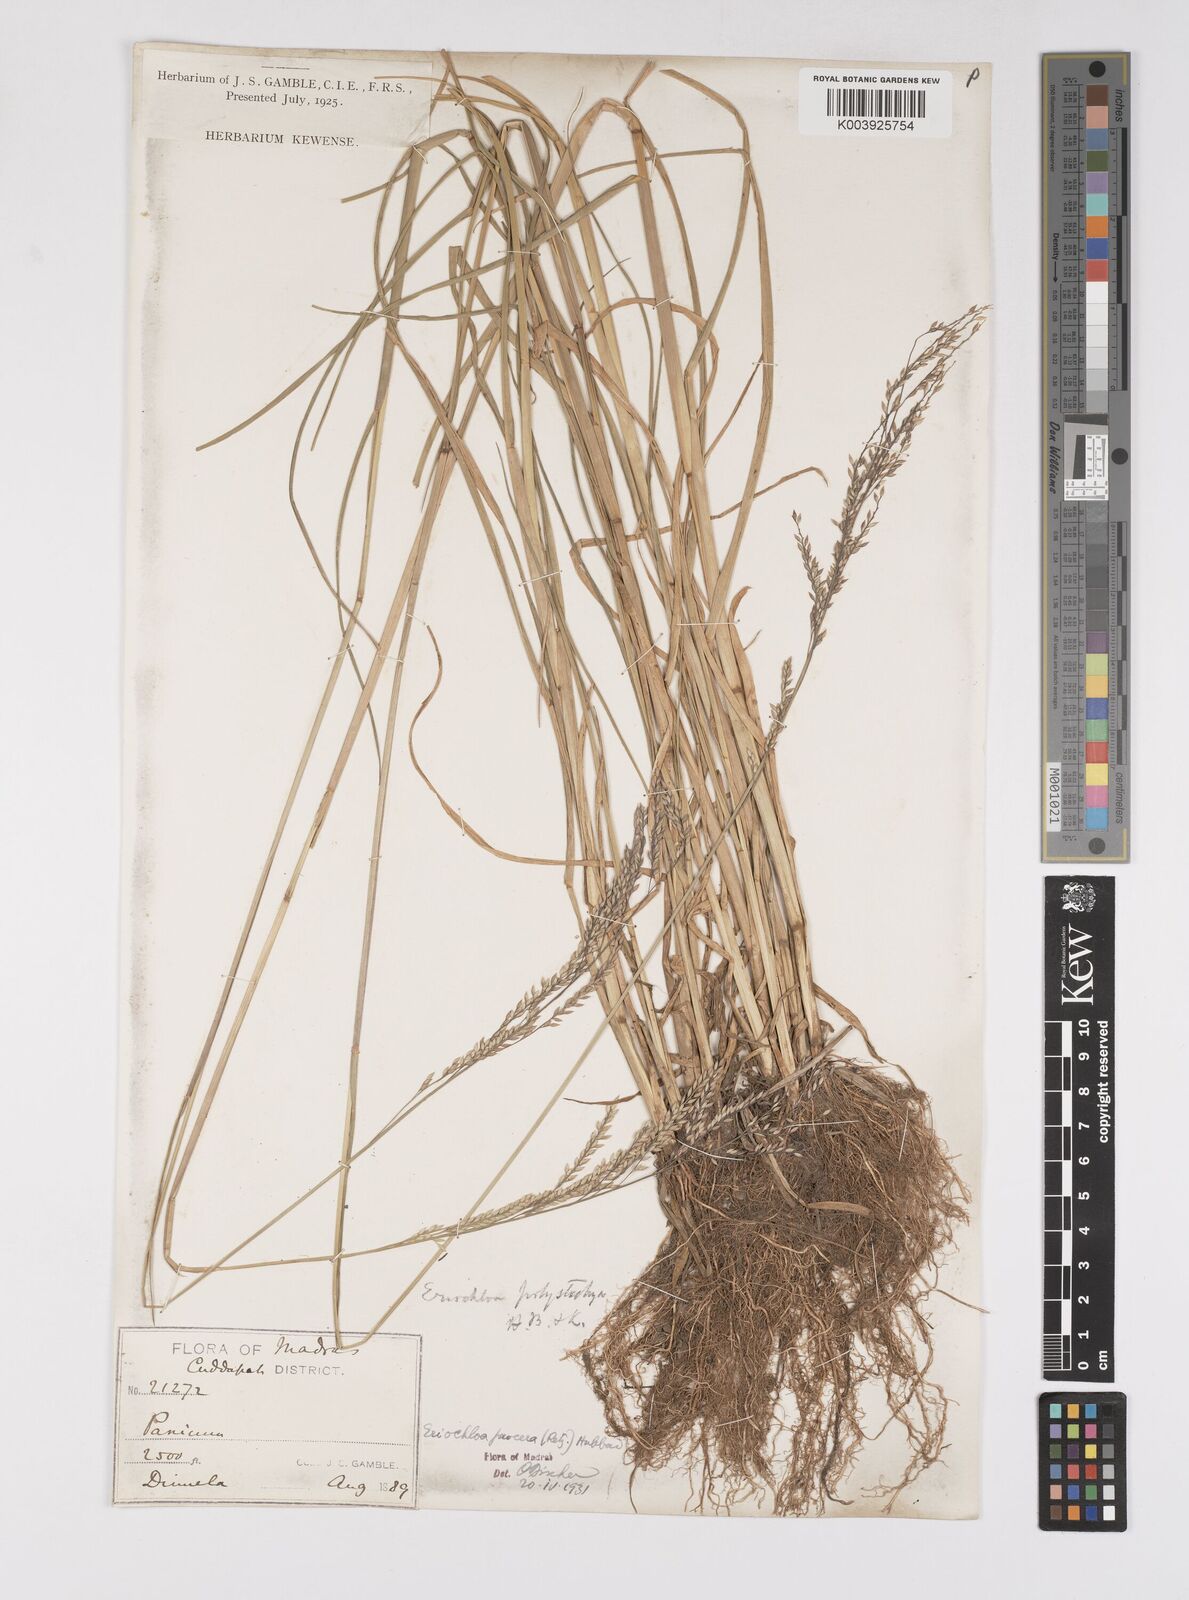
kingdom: Plantae
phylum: Tracheophyta
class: Liliopsida
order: Poales
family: Poaceae
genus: Eriochloa
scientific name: Eriochloa procera
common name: Spring grass
